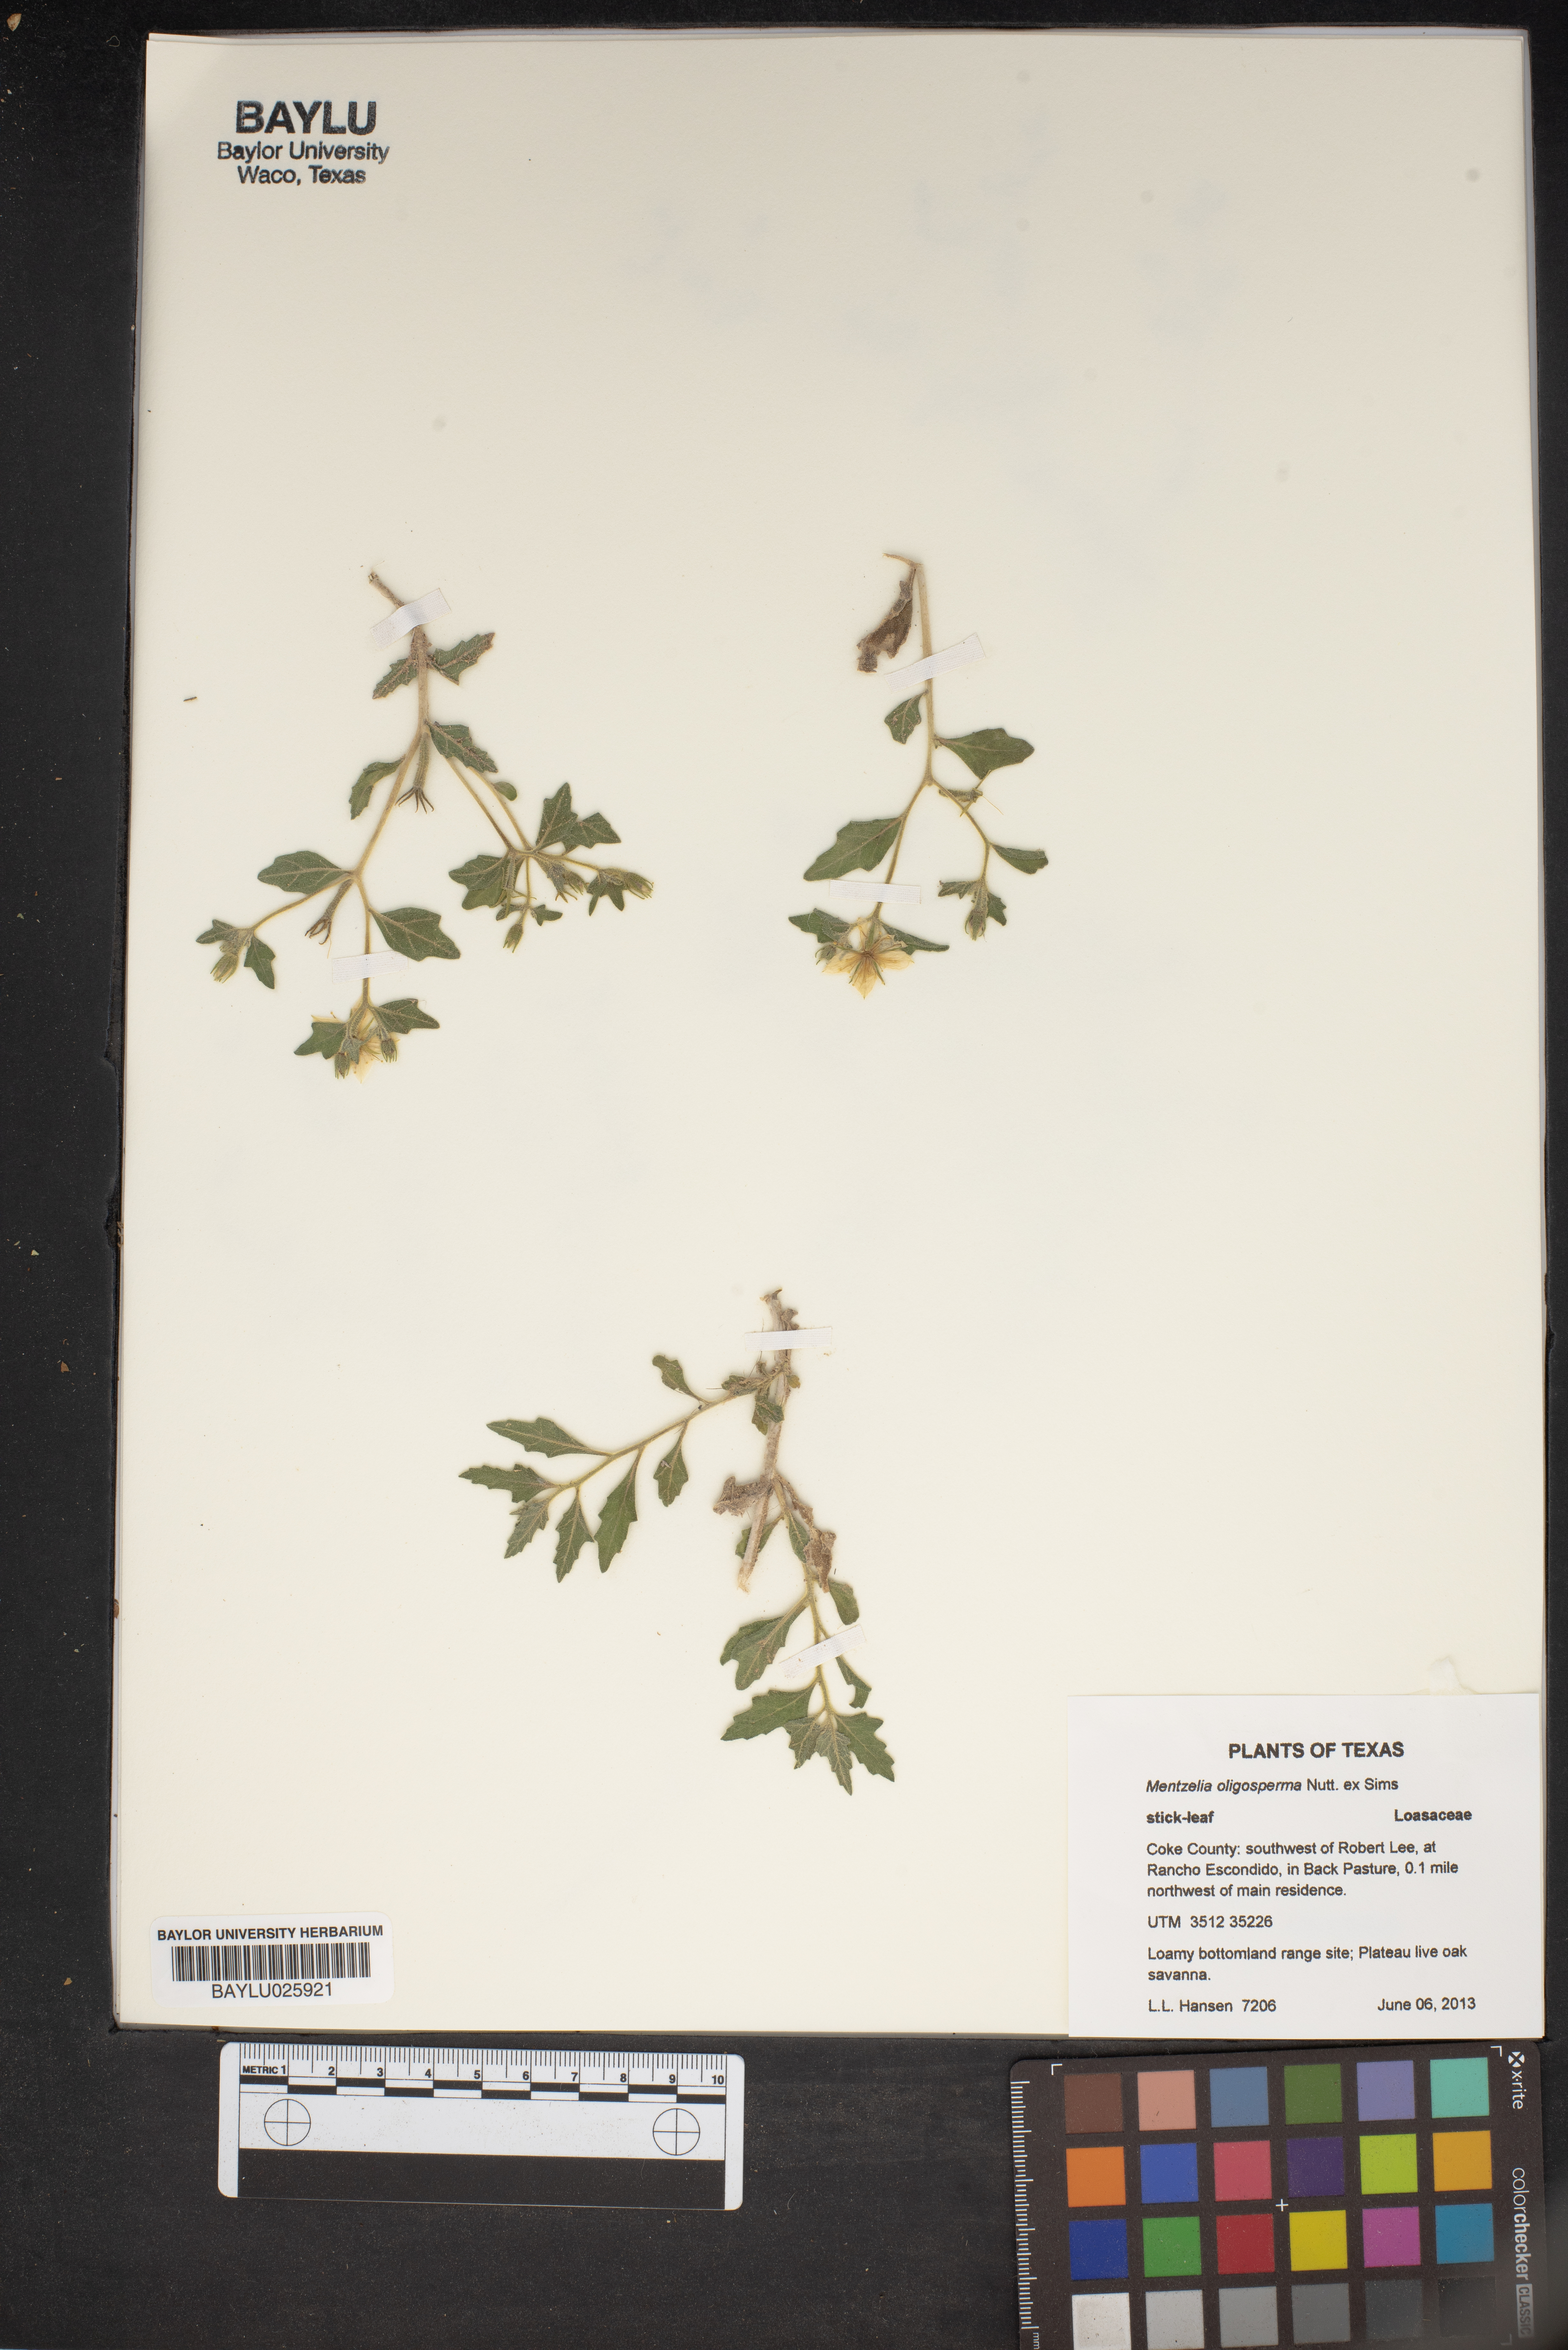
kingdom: Plantae
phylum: Tracheophyta
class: Magnoliopsida
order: Cornales
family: Loasaceae
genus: Mentzelia
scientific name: Mentzelia oligosperma
